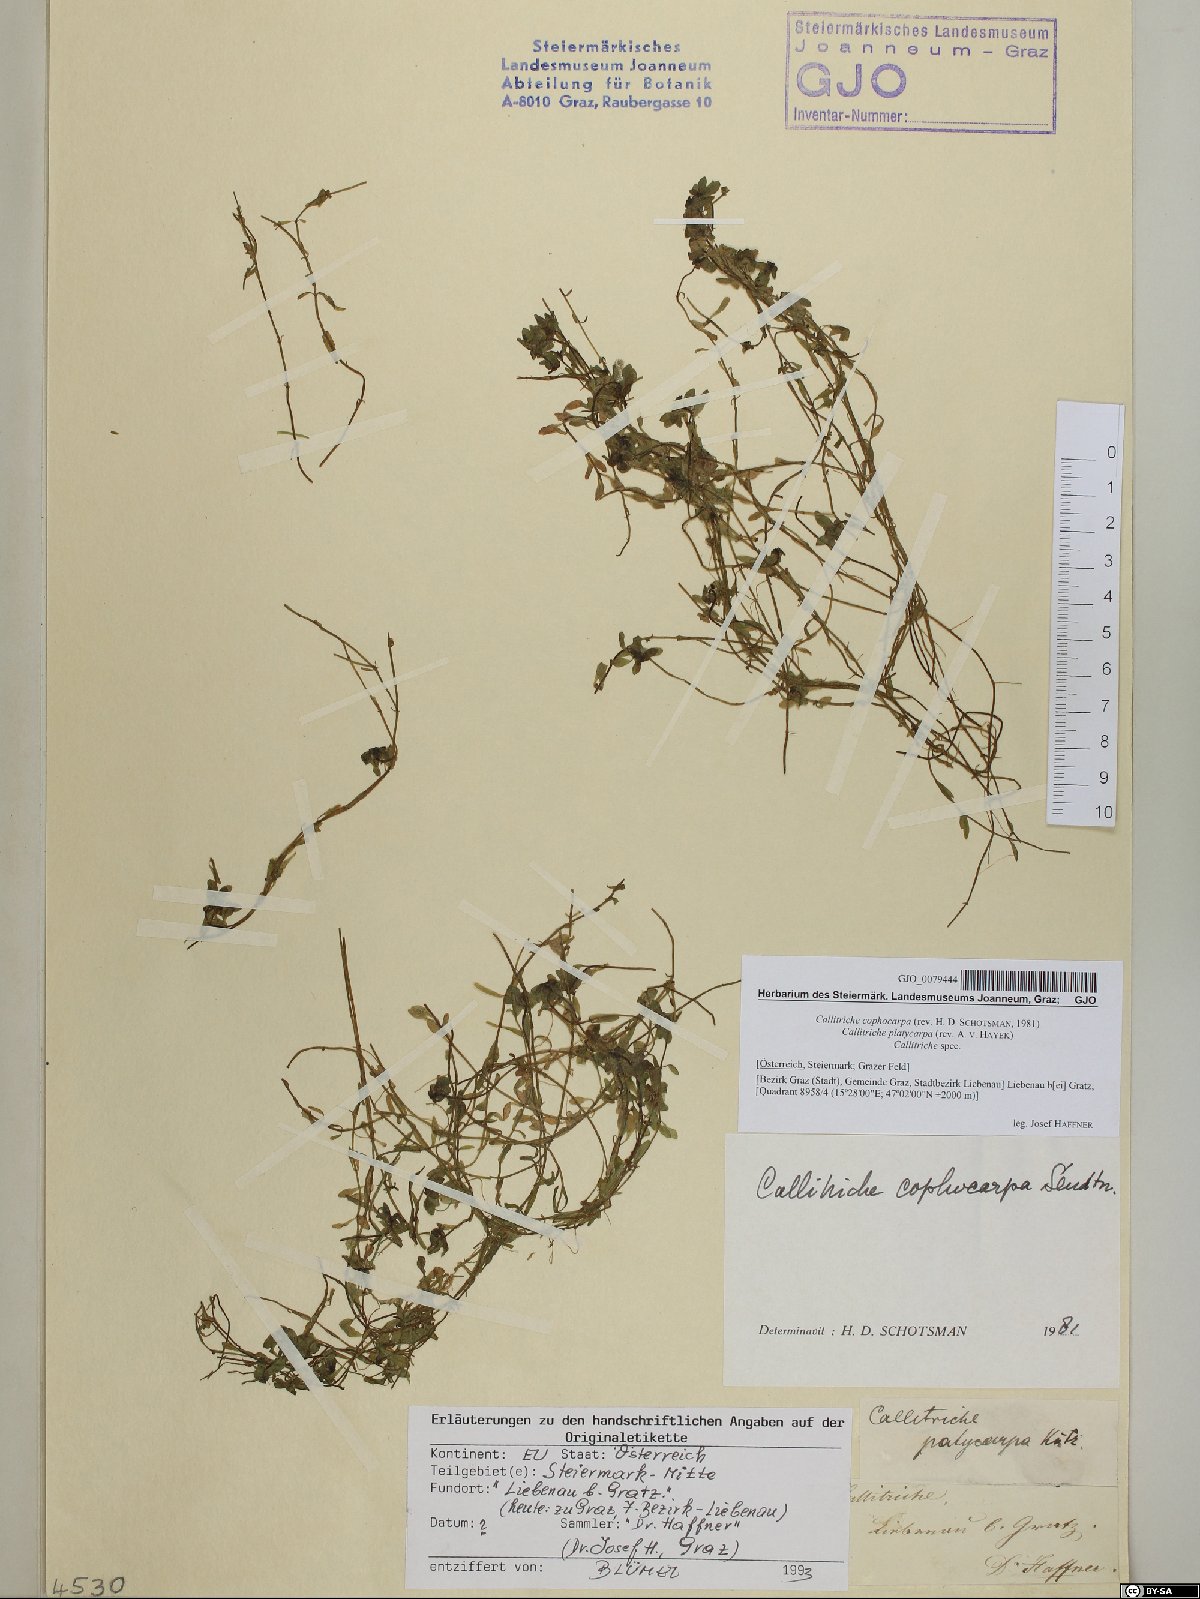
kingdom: Plantae
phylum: Tracheophyta
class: Magnoliopsida
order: Lamiales
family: Plantaginaceae
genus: Callitriche
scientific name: Callitriche cophocarpa
